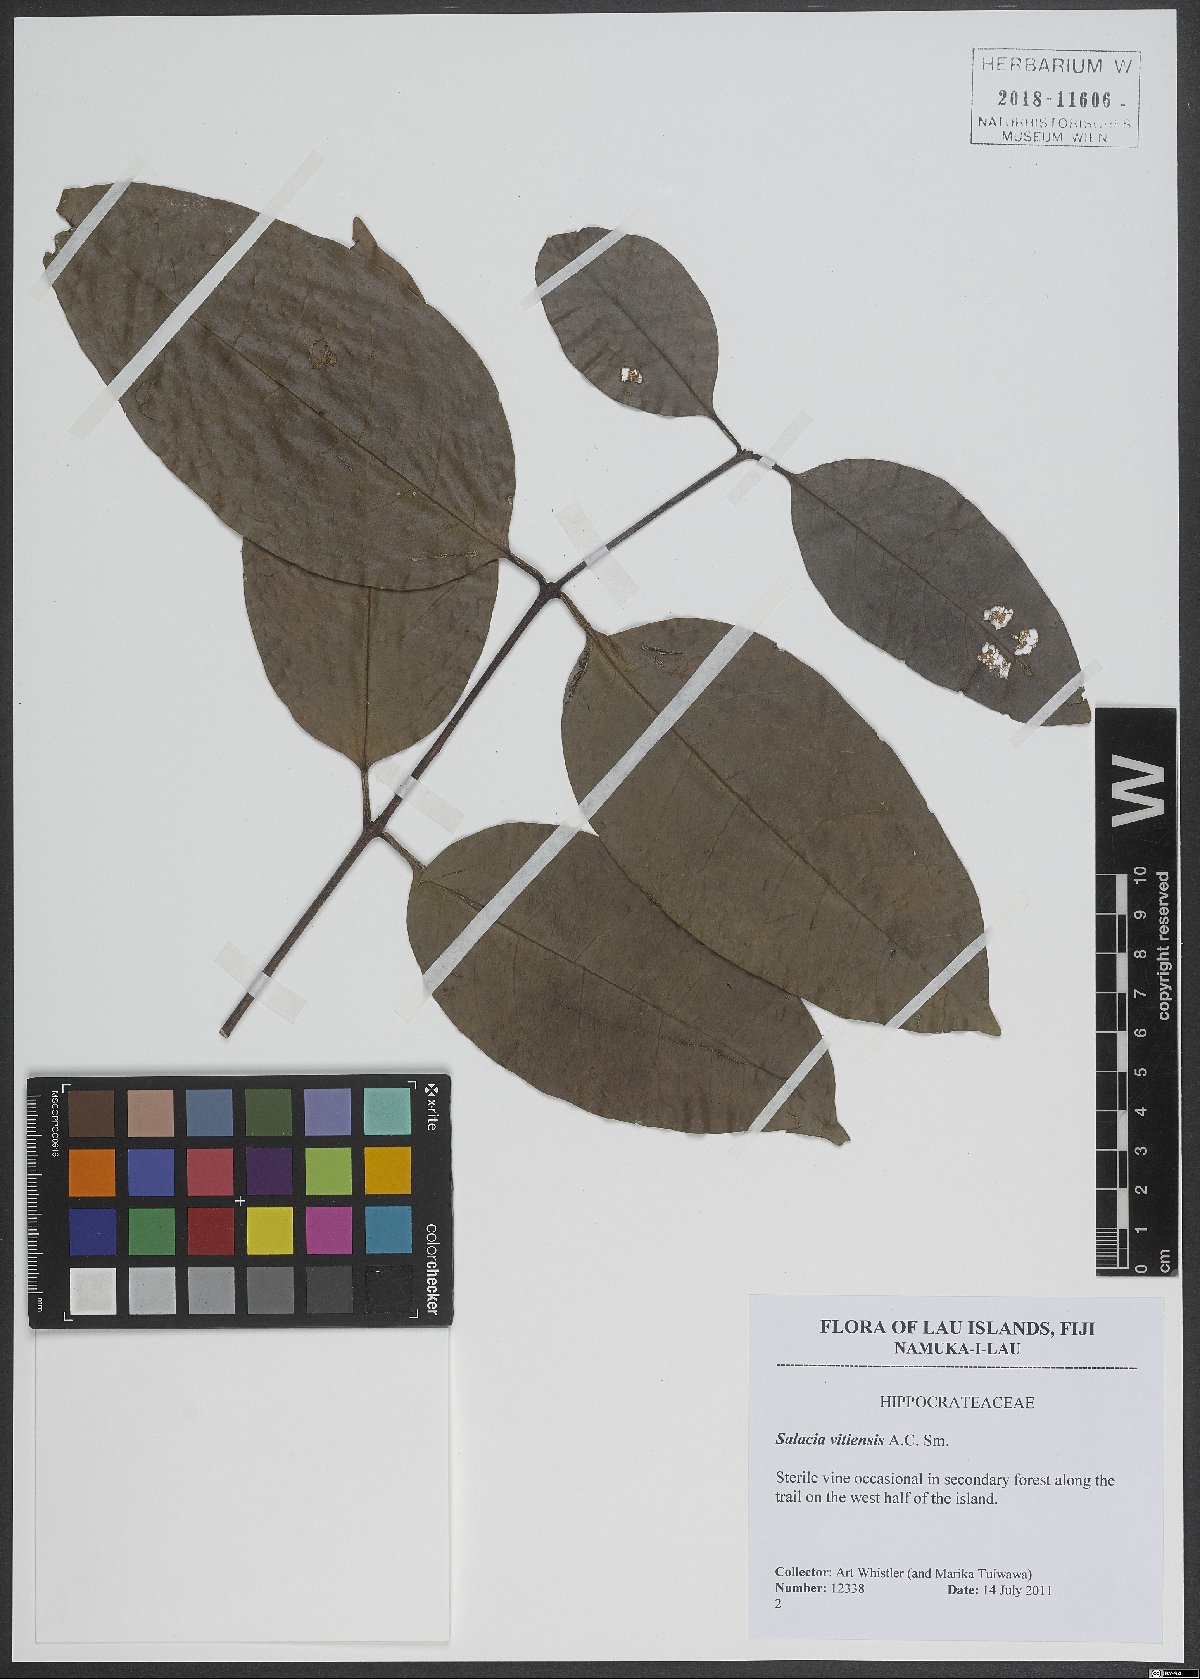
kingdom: Plantae
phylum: Tracheophyta
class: Magnoliopsida
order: Celastrales
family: Celastraceae
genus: Salacia
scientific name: Salacia vitiensis
